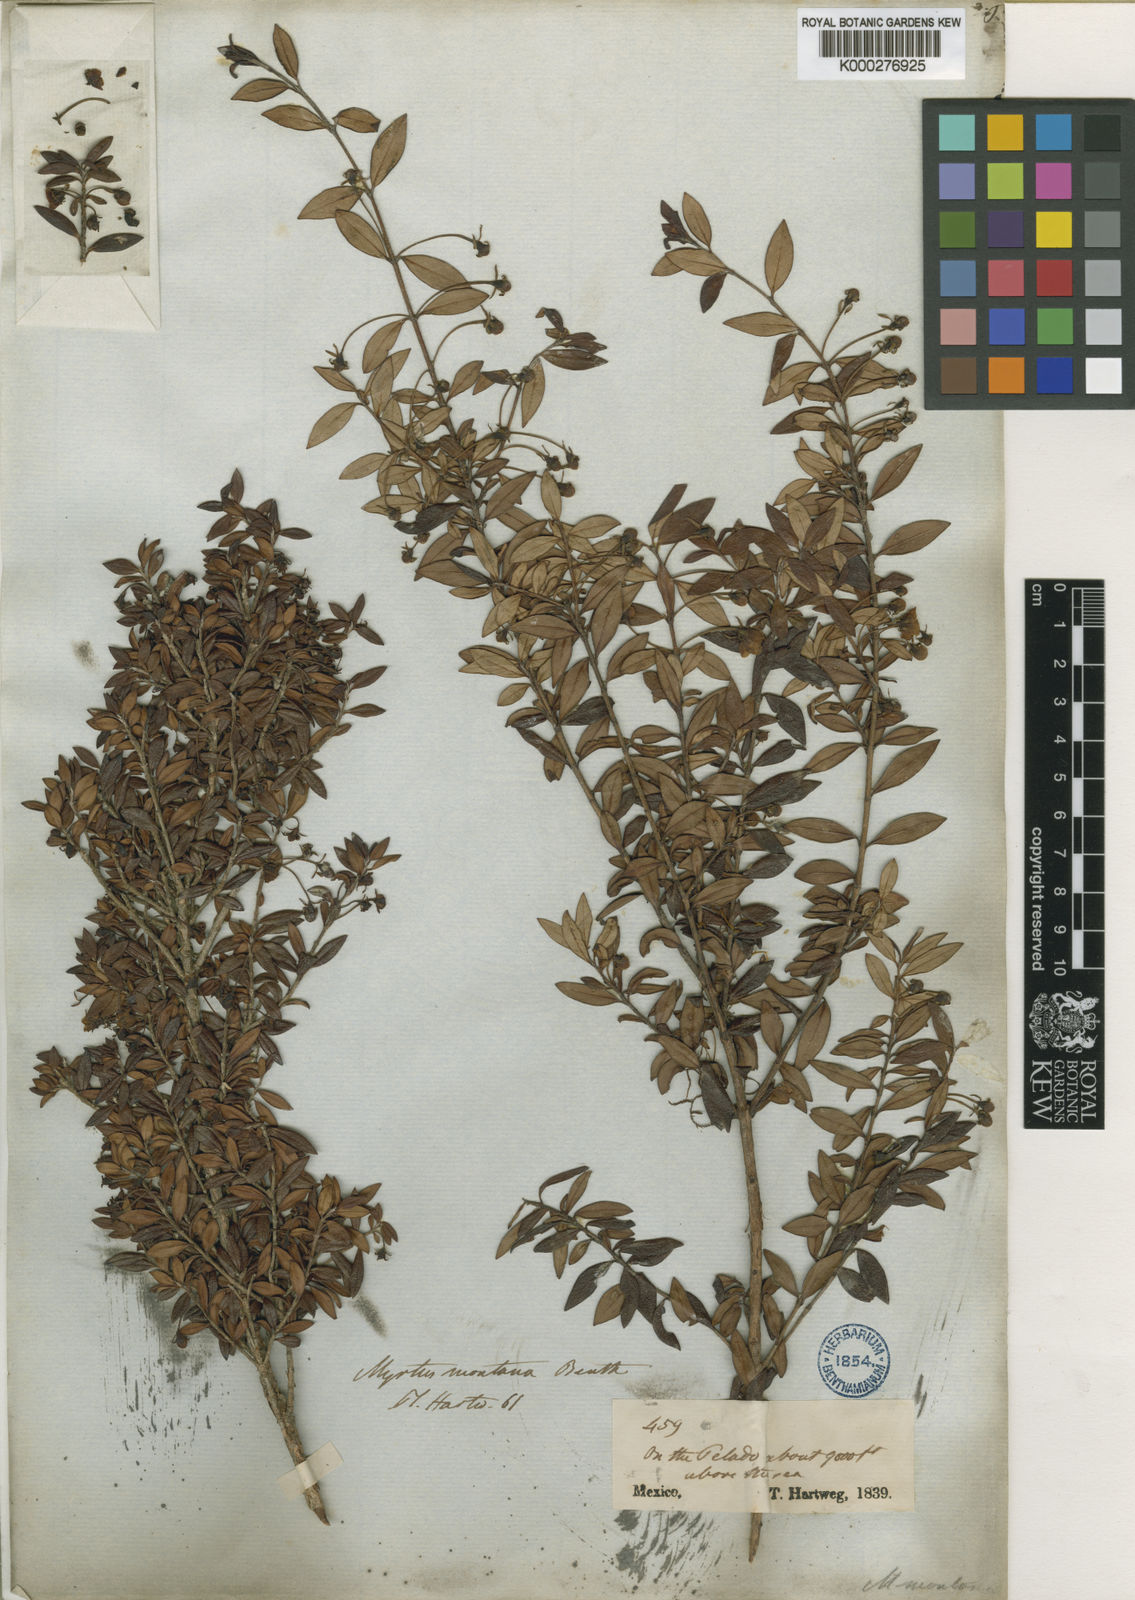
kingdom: Plantae
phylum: Tracheophyta
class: Magnoliopsida
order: Myrtales
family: Myrtaceae
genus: Ugni
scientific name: Ugni myricoides
